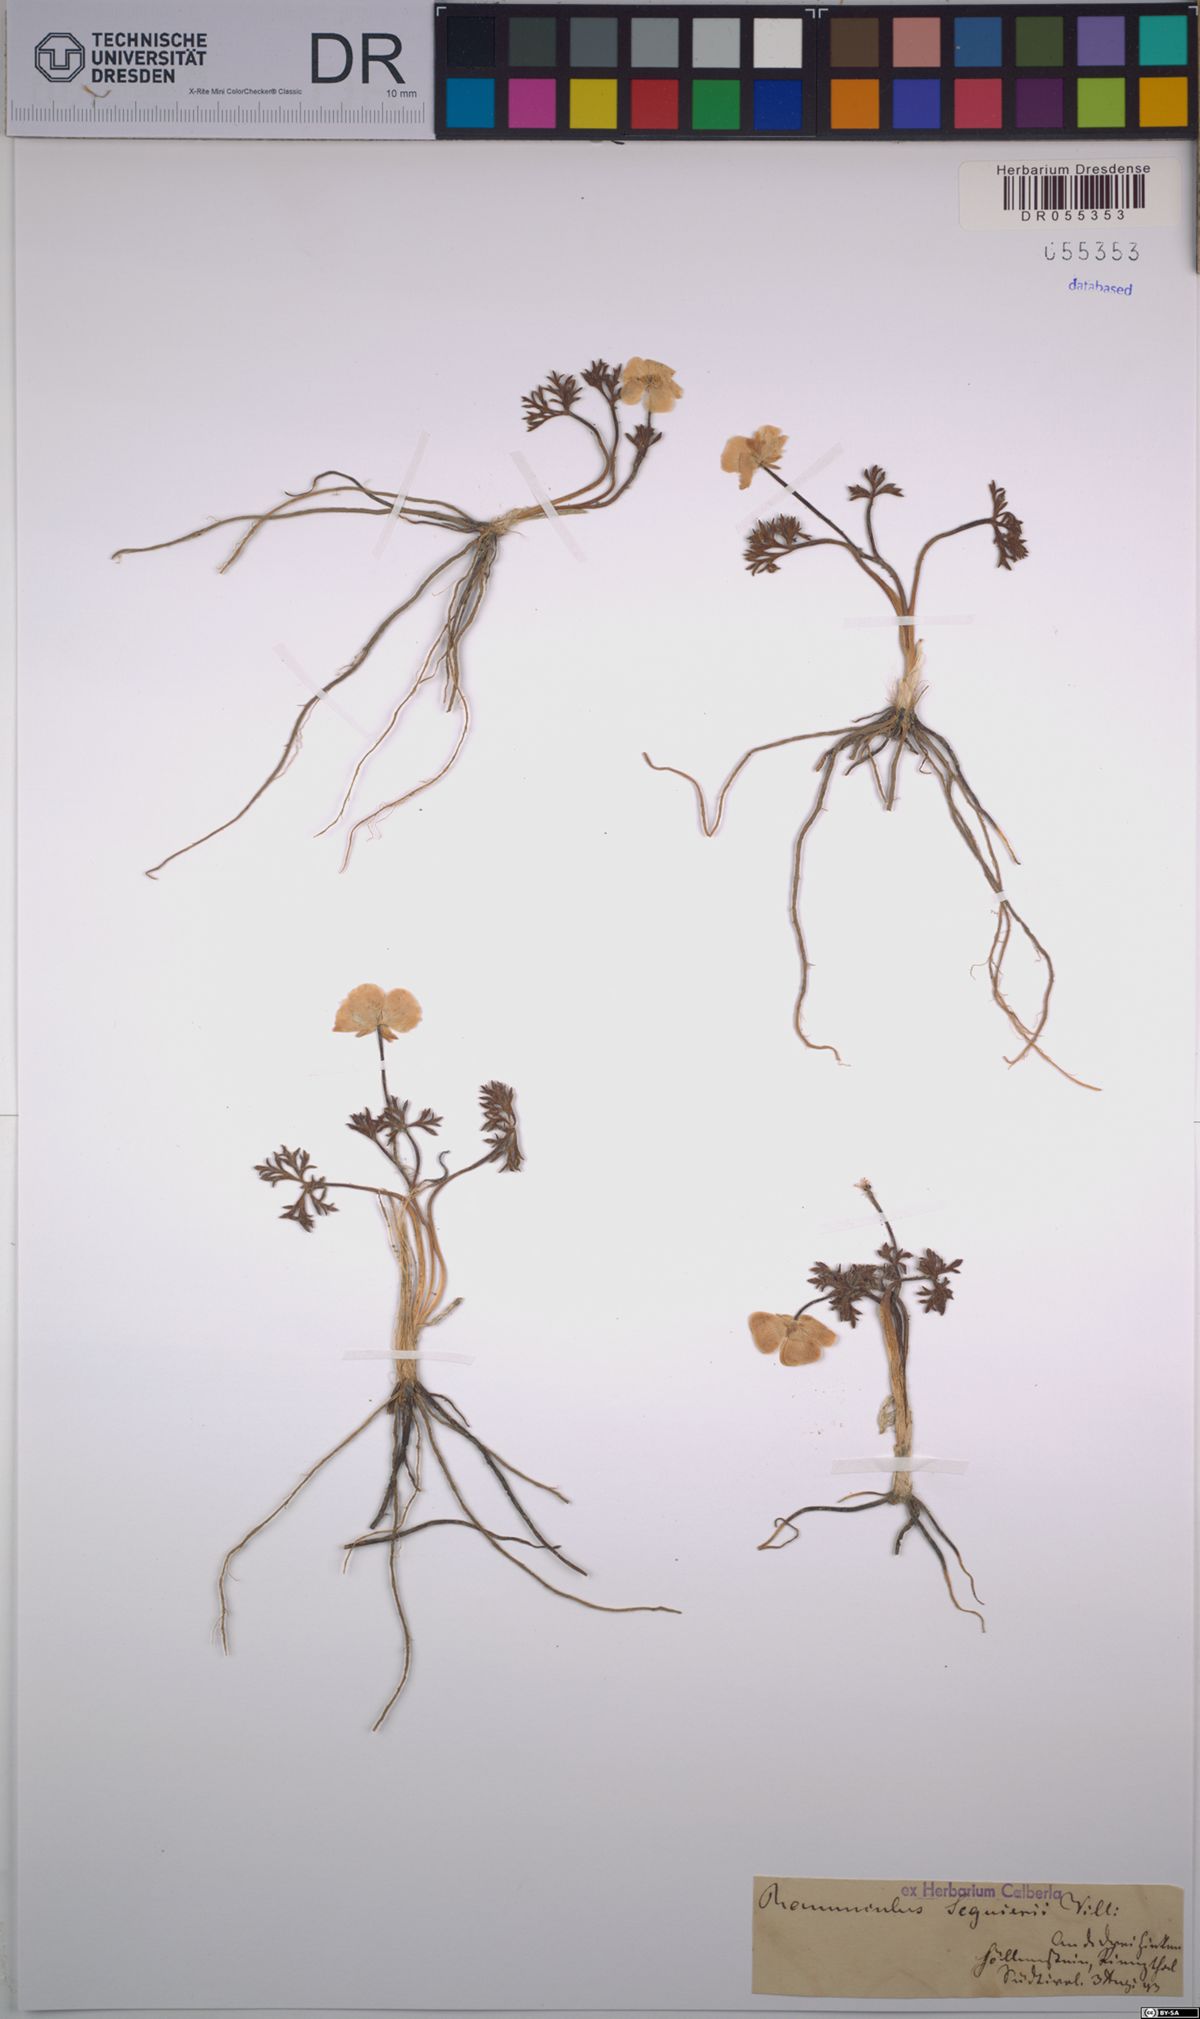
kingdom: Plantae
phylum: Tracheophyta
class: Magnoliopsida
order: Ranunculales
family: Ranunculaceae
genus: Ranunculus
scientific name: Ranunculus seguieri
